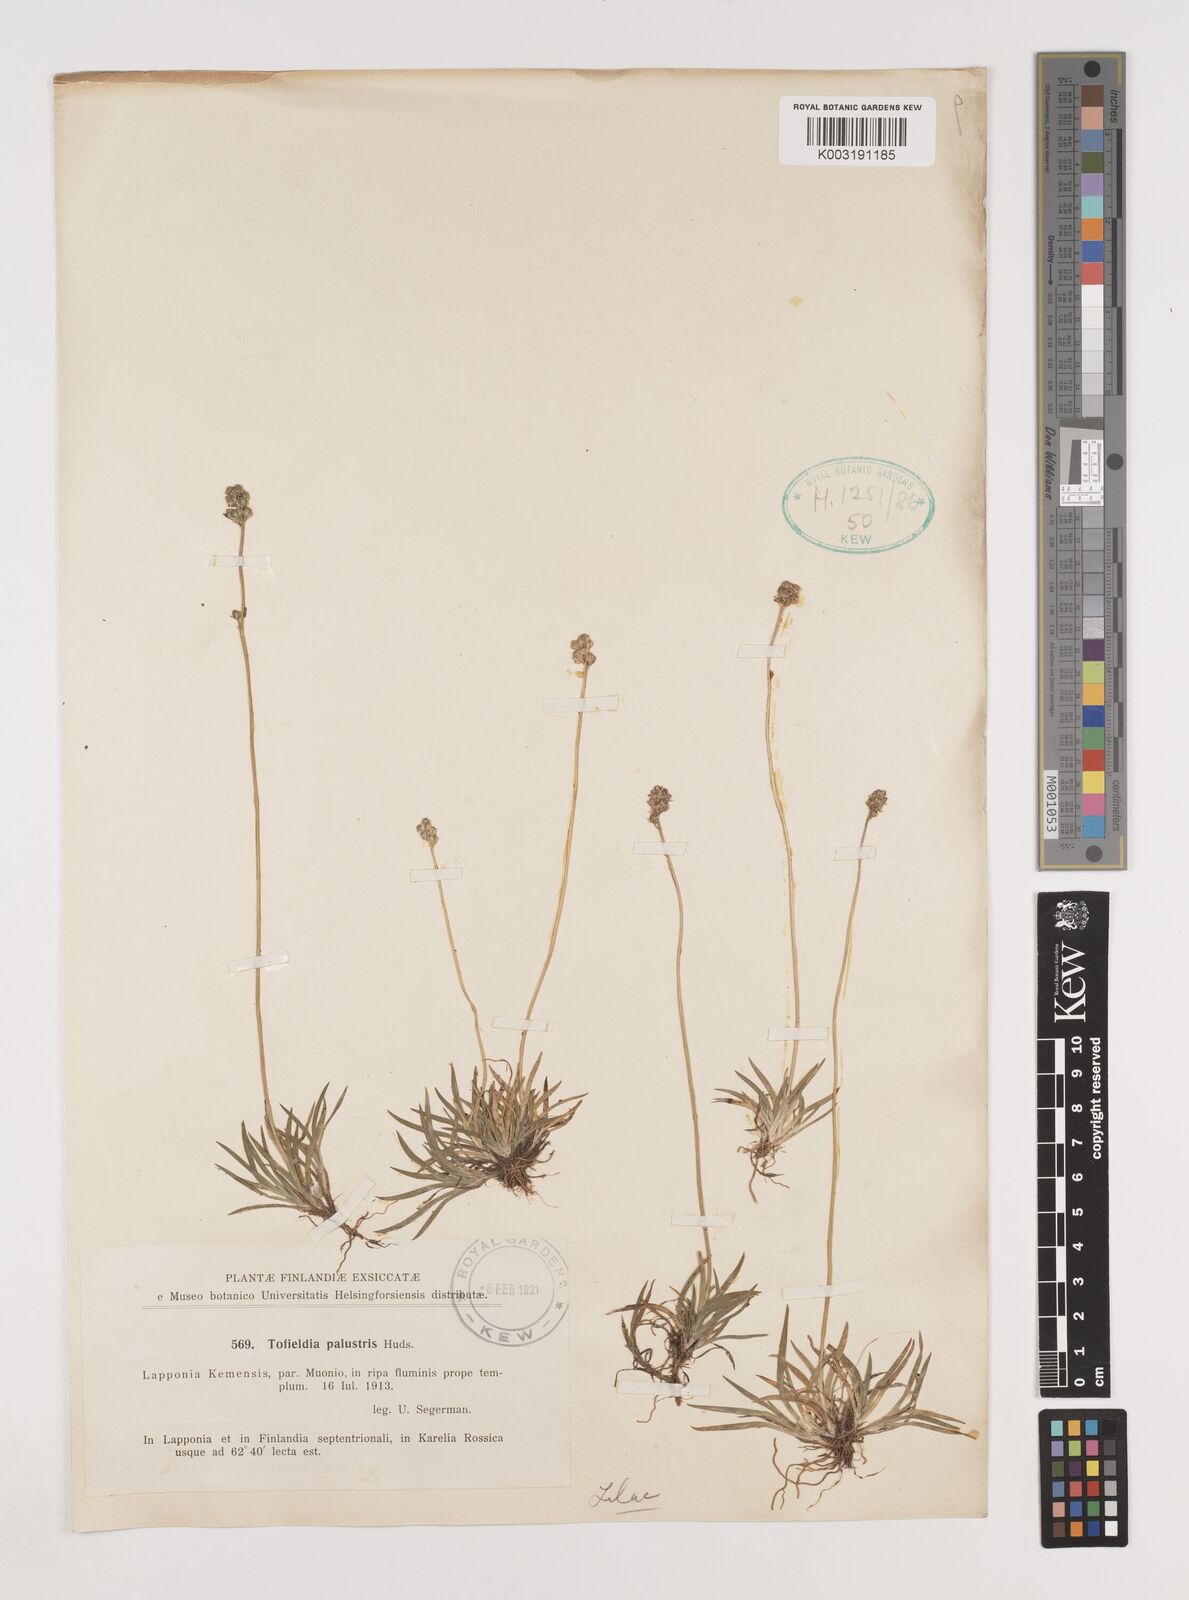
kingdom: Plantae
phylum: Tracheophyta
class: Liliopsida
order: Alismatales
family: Tofieldiaceae
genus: Tofieldia
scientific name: Tofieldia calyculata
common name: German-asphodel
